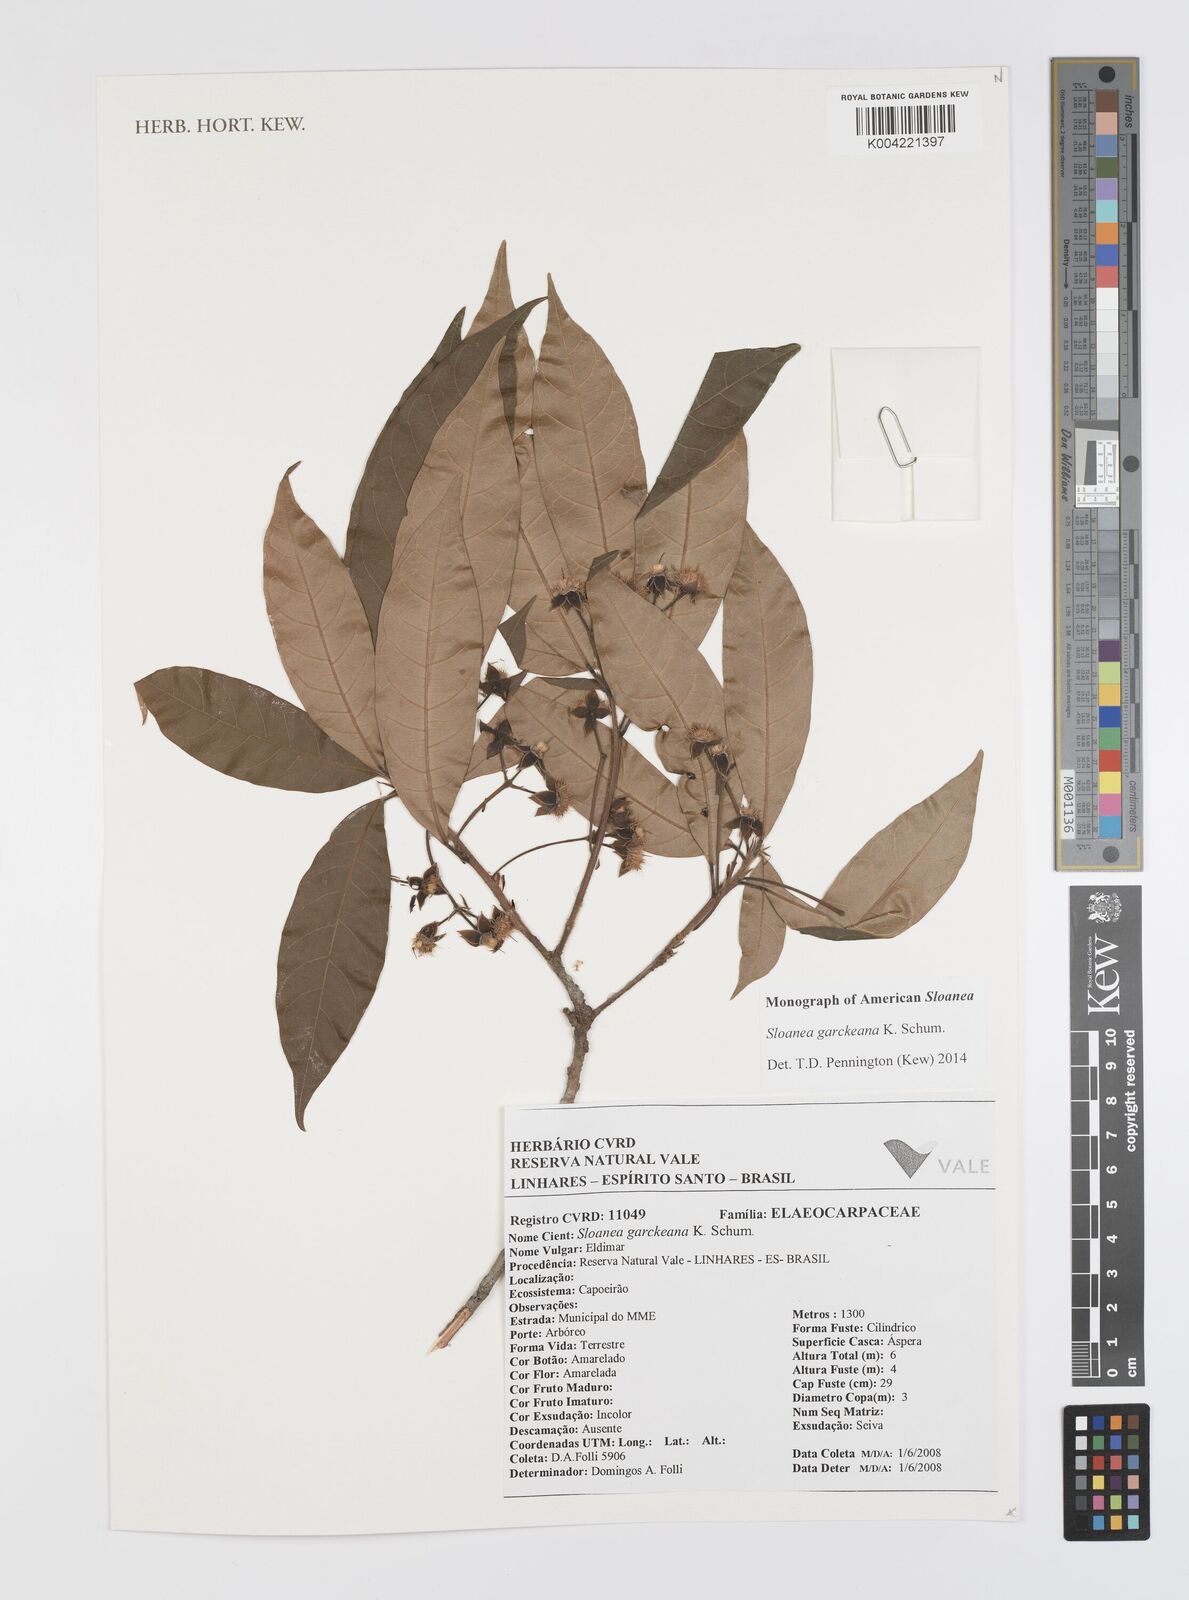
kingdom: Plantae
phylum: Tracheophyta
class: Magnoliopsida
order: Oxalidales
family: Elaeocarpaceae
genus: Sloanea
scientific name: Sloanea garckeana
